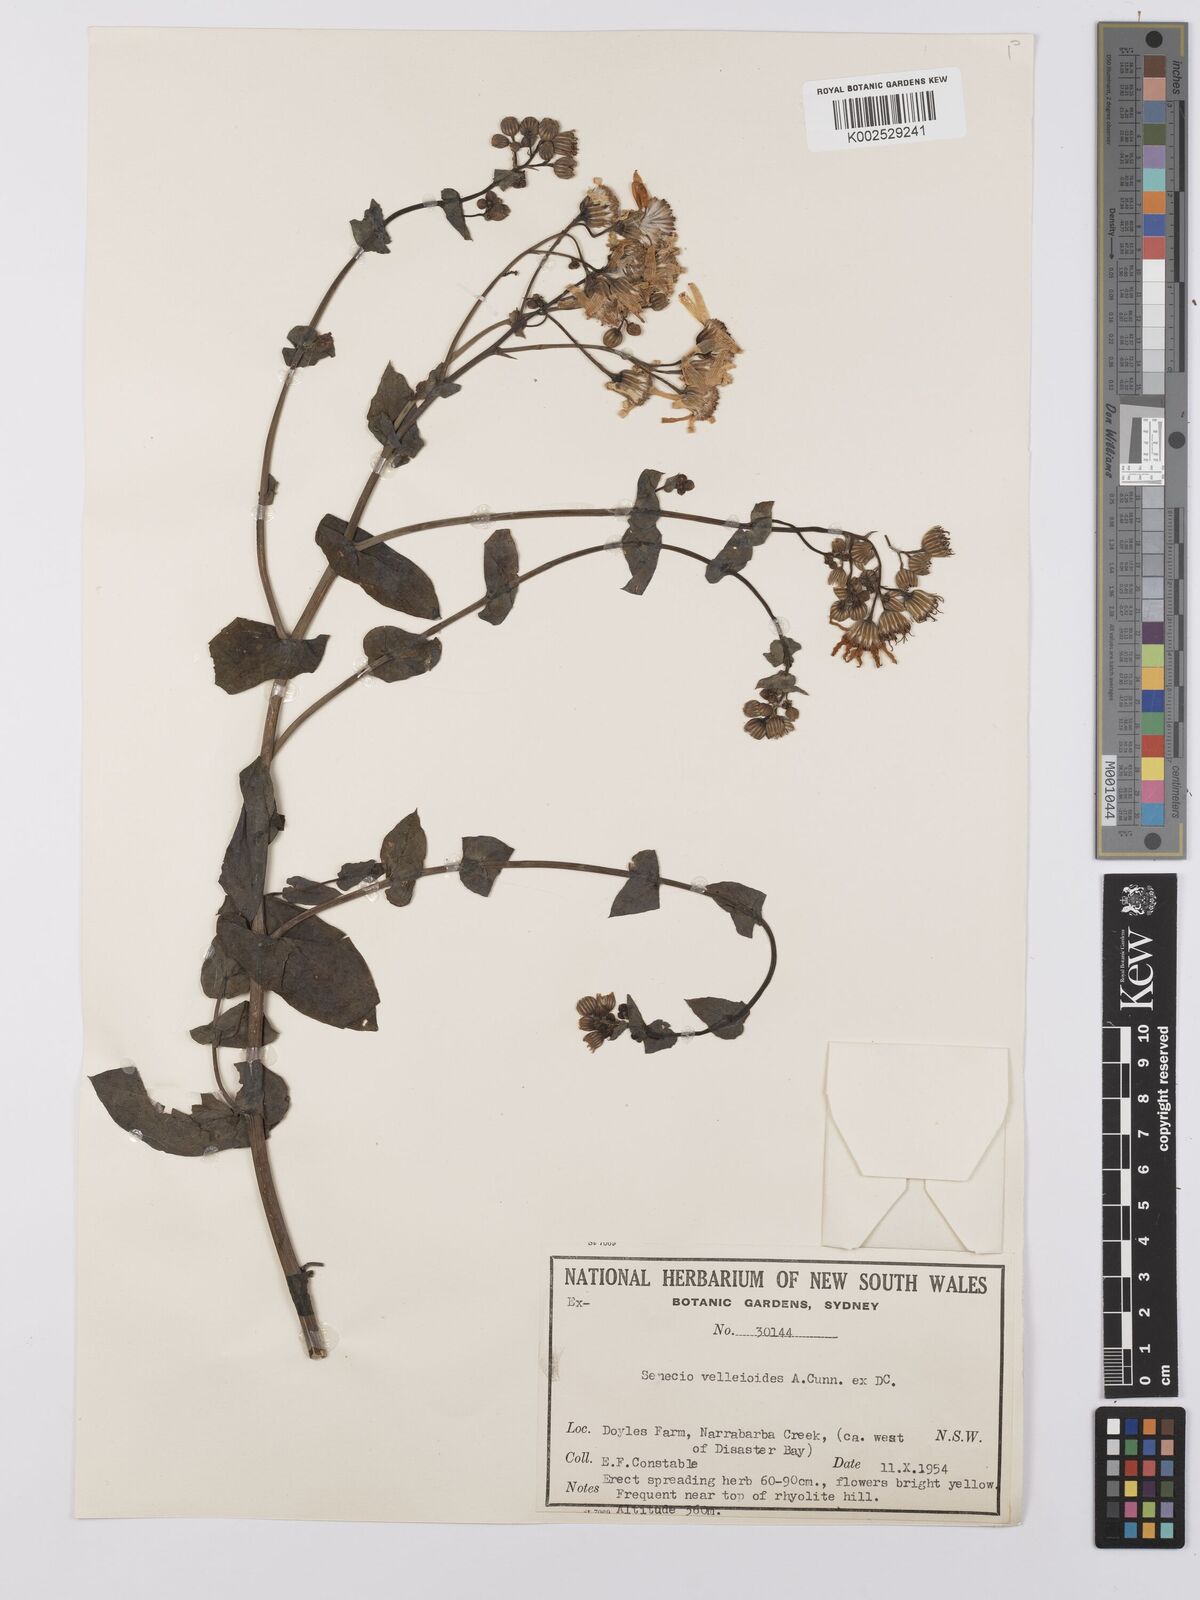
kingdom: Plantae
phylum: Tracheophyta
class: Magnoliopsida
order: Asterales
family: Asteraceae
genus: Lordhowea
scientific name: Lordhowea velleioides
